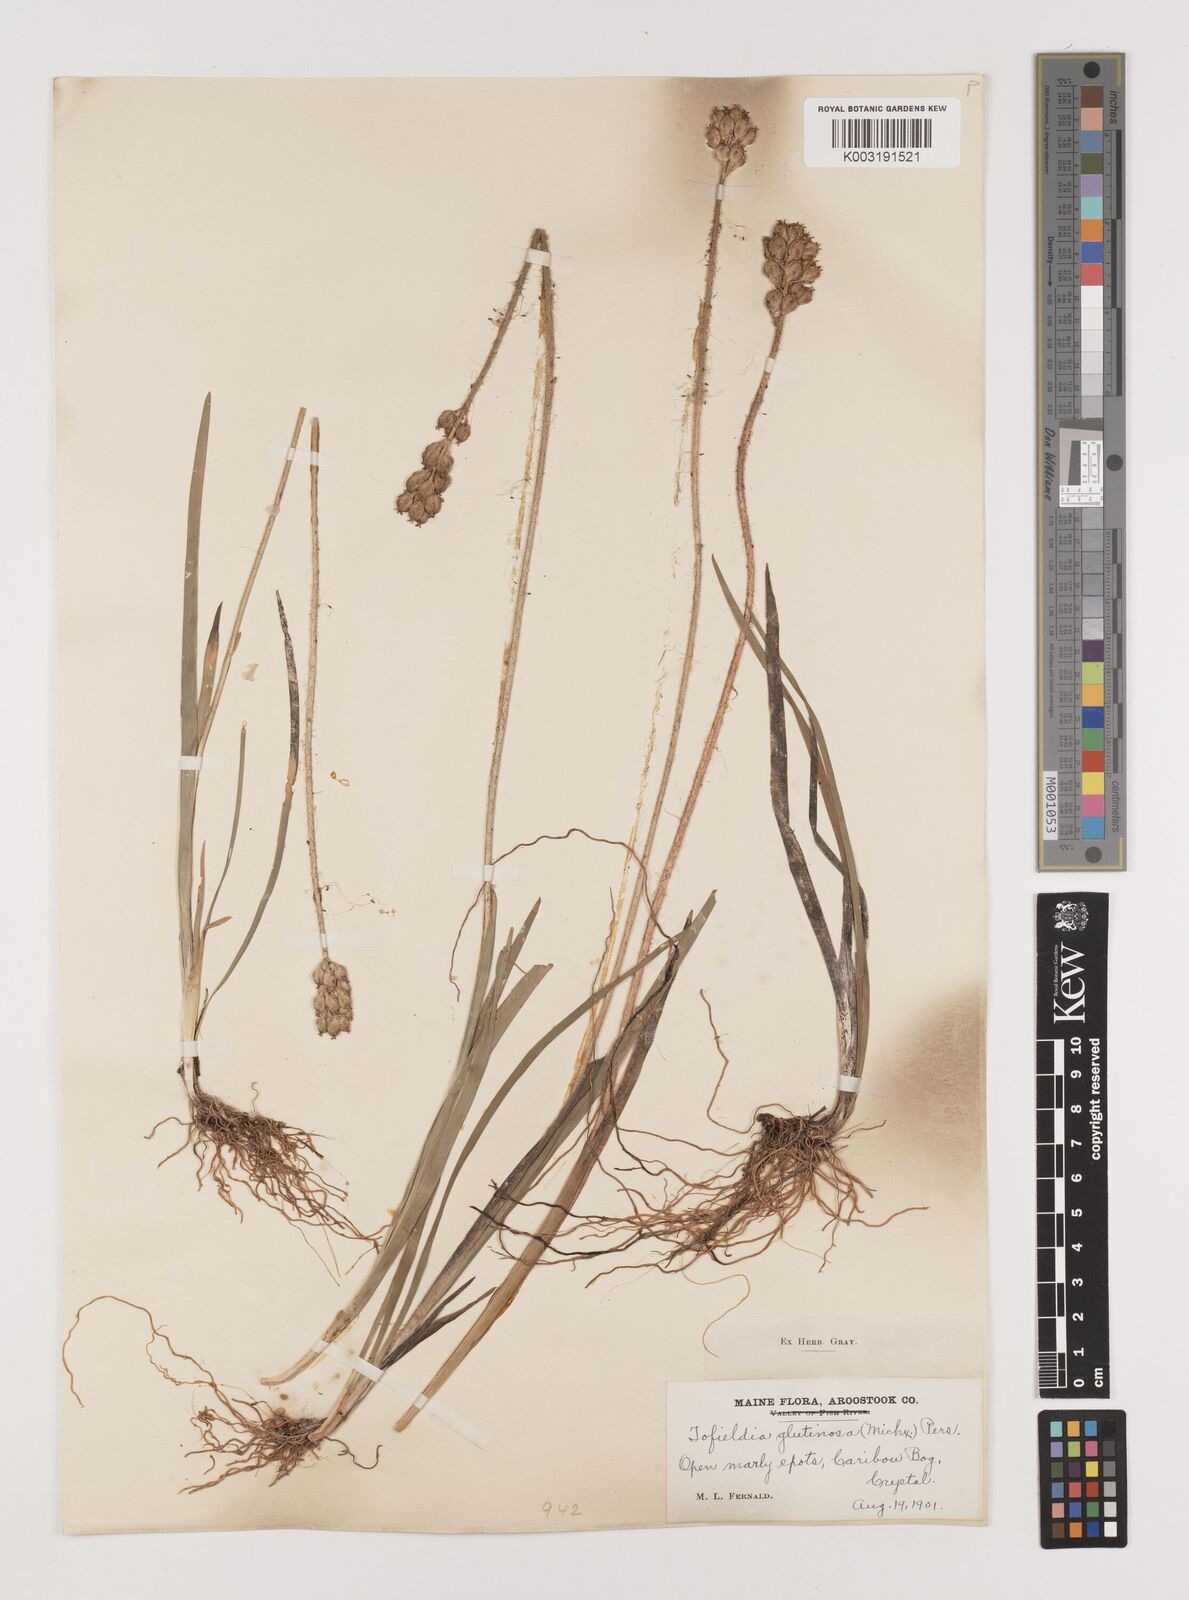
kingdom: Plantae
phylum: Tracheophyta
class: Liliopsida
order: Alismatales
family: Tofieldiaceae
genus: Triantha
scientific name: Triantha glutinosa
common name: Glutinous tofieldia
